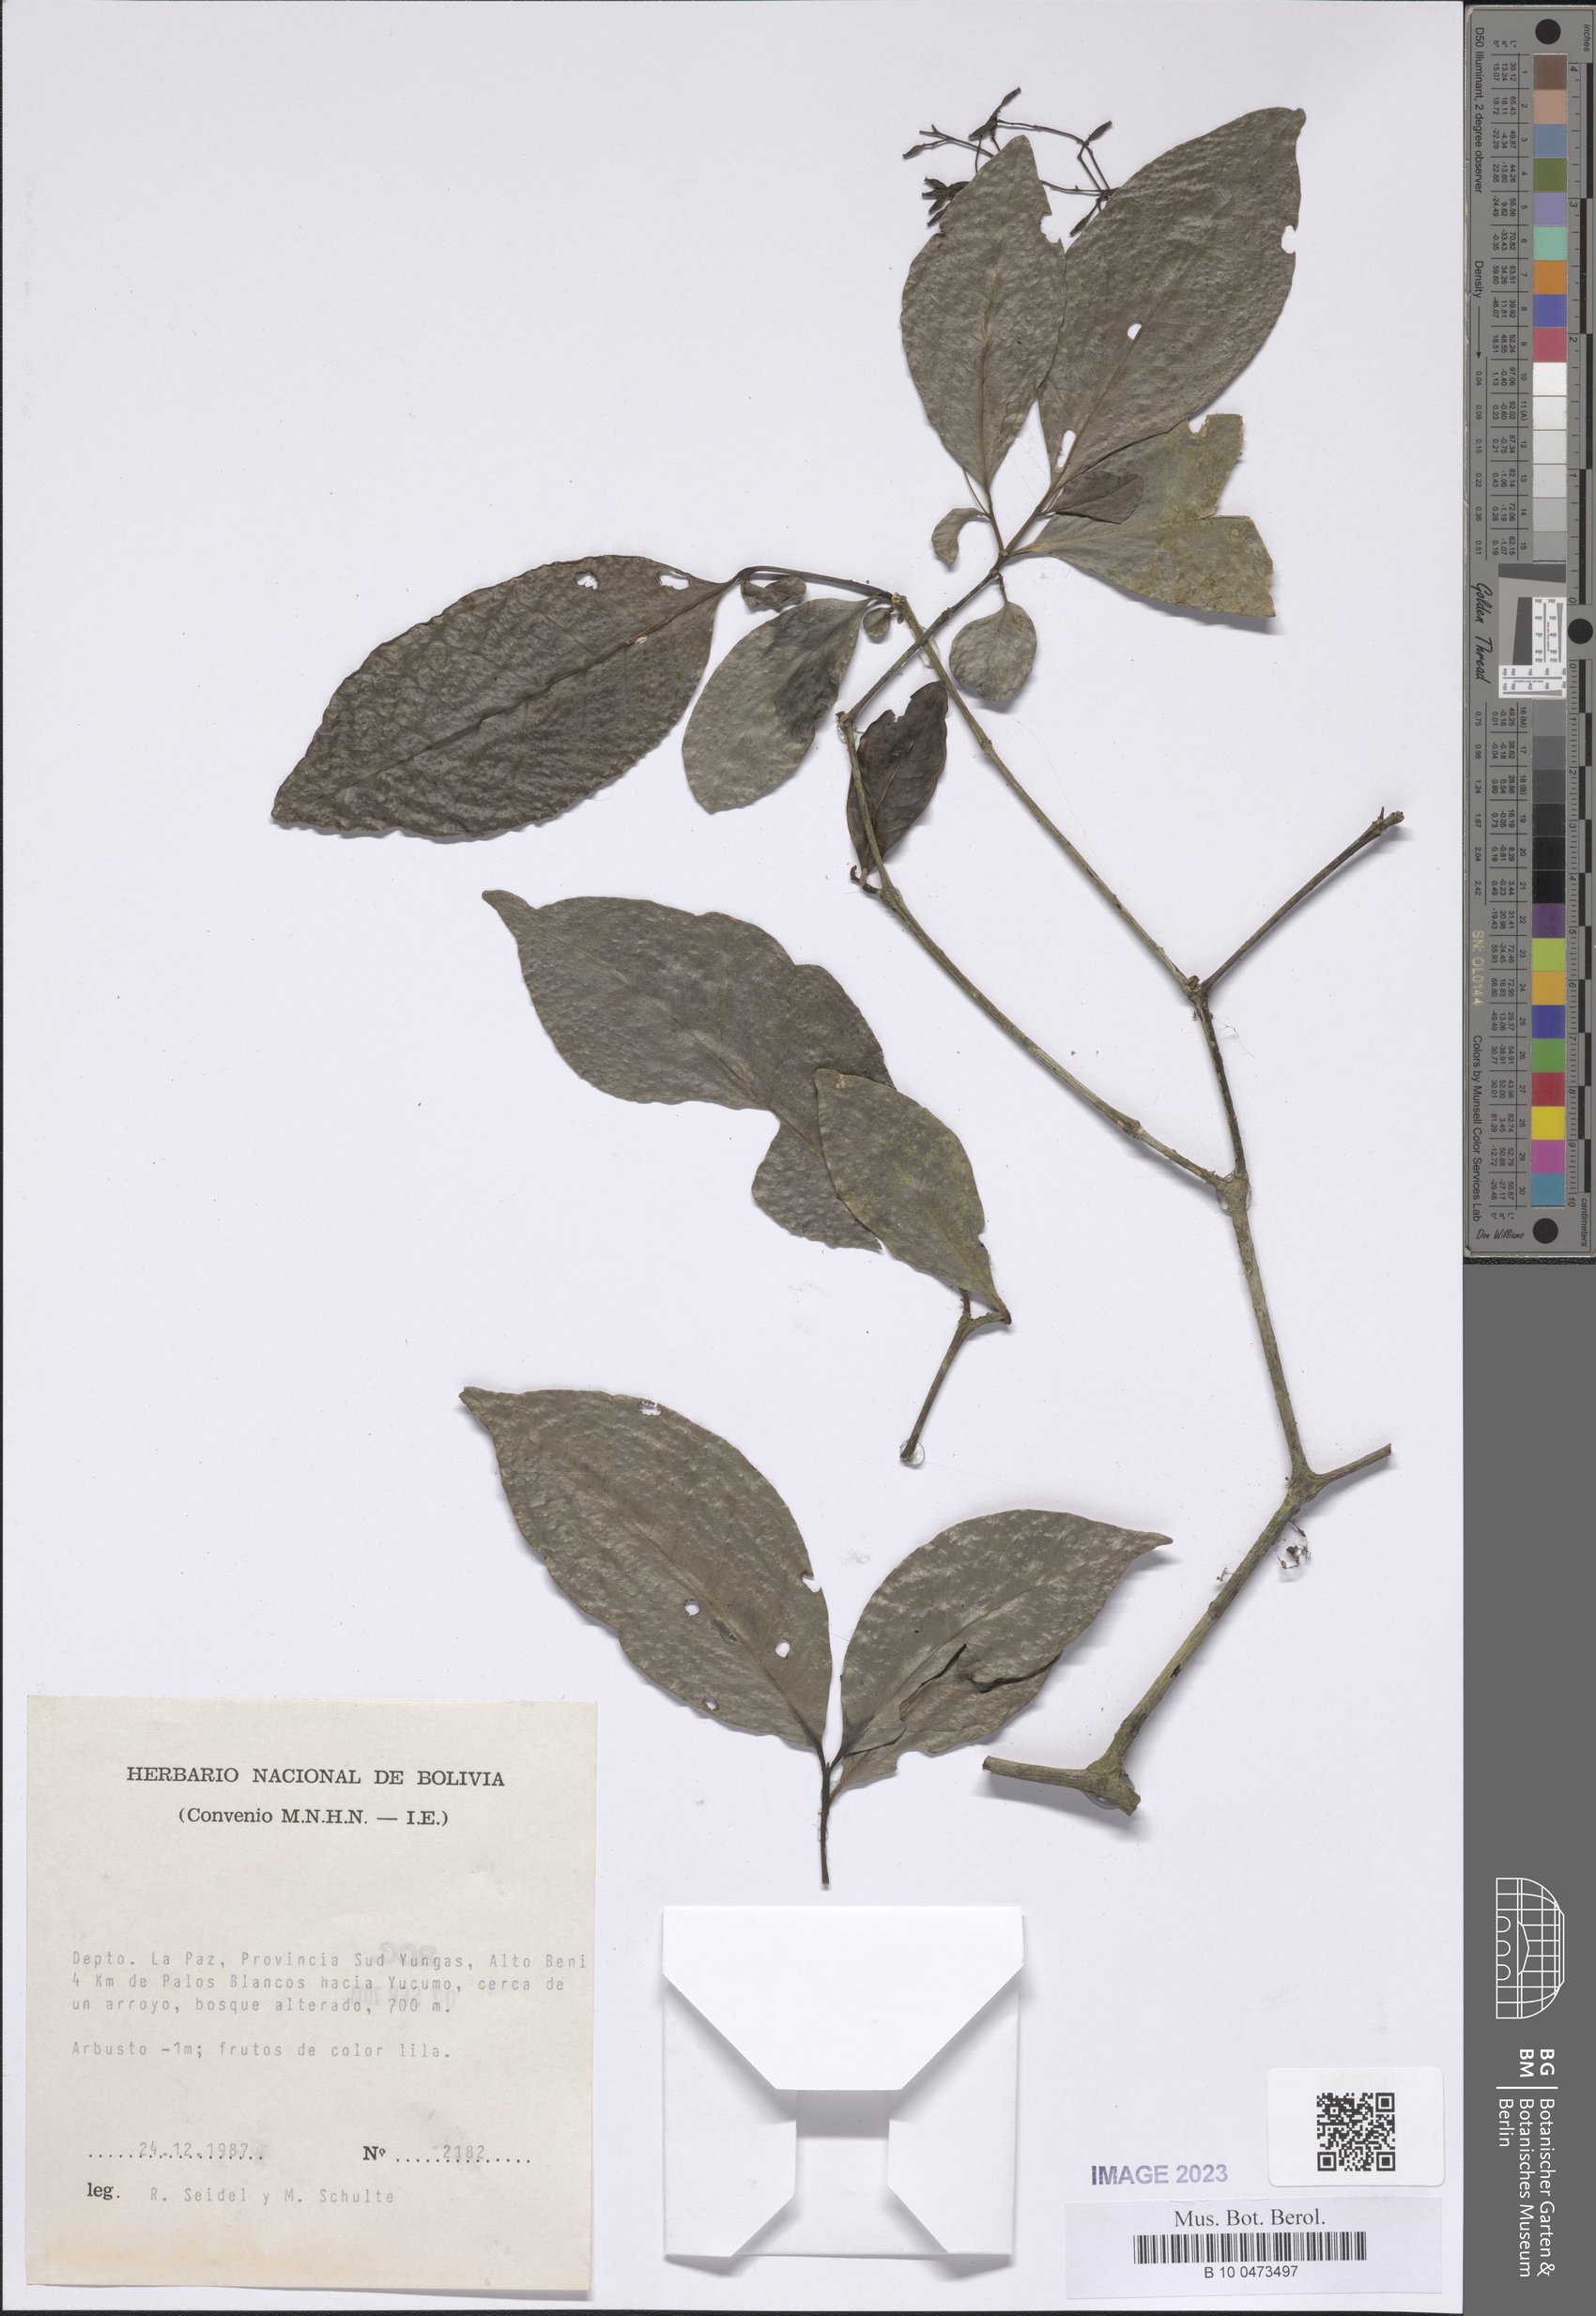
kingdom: Plantae
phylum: Tracheophyta
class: Magnoliopsida
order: Caryophyllales
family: Nyctaginaceae
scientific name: Nyctaginaceae
